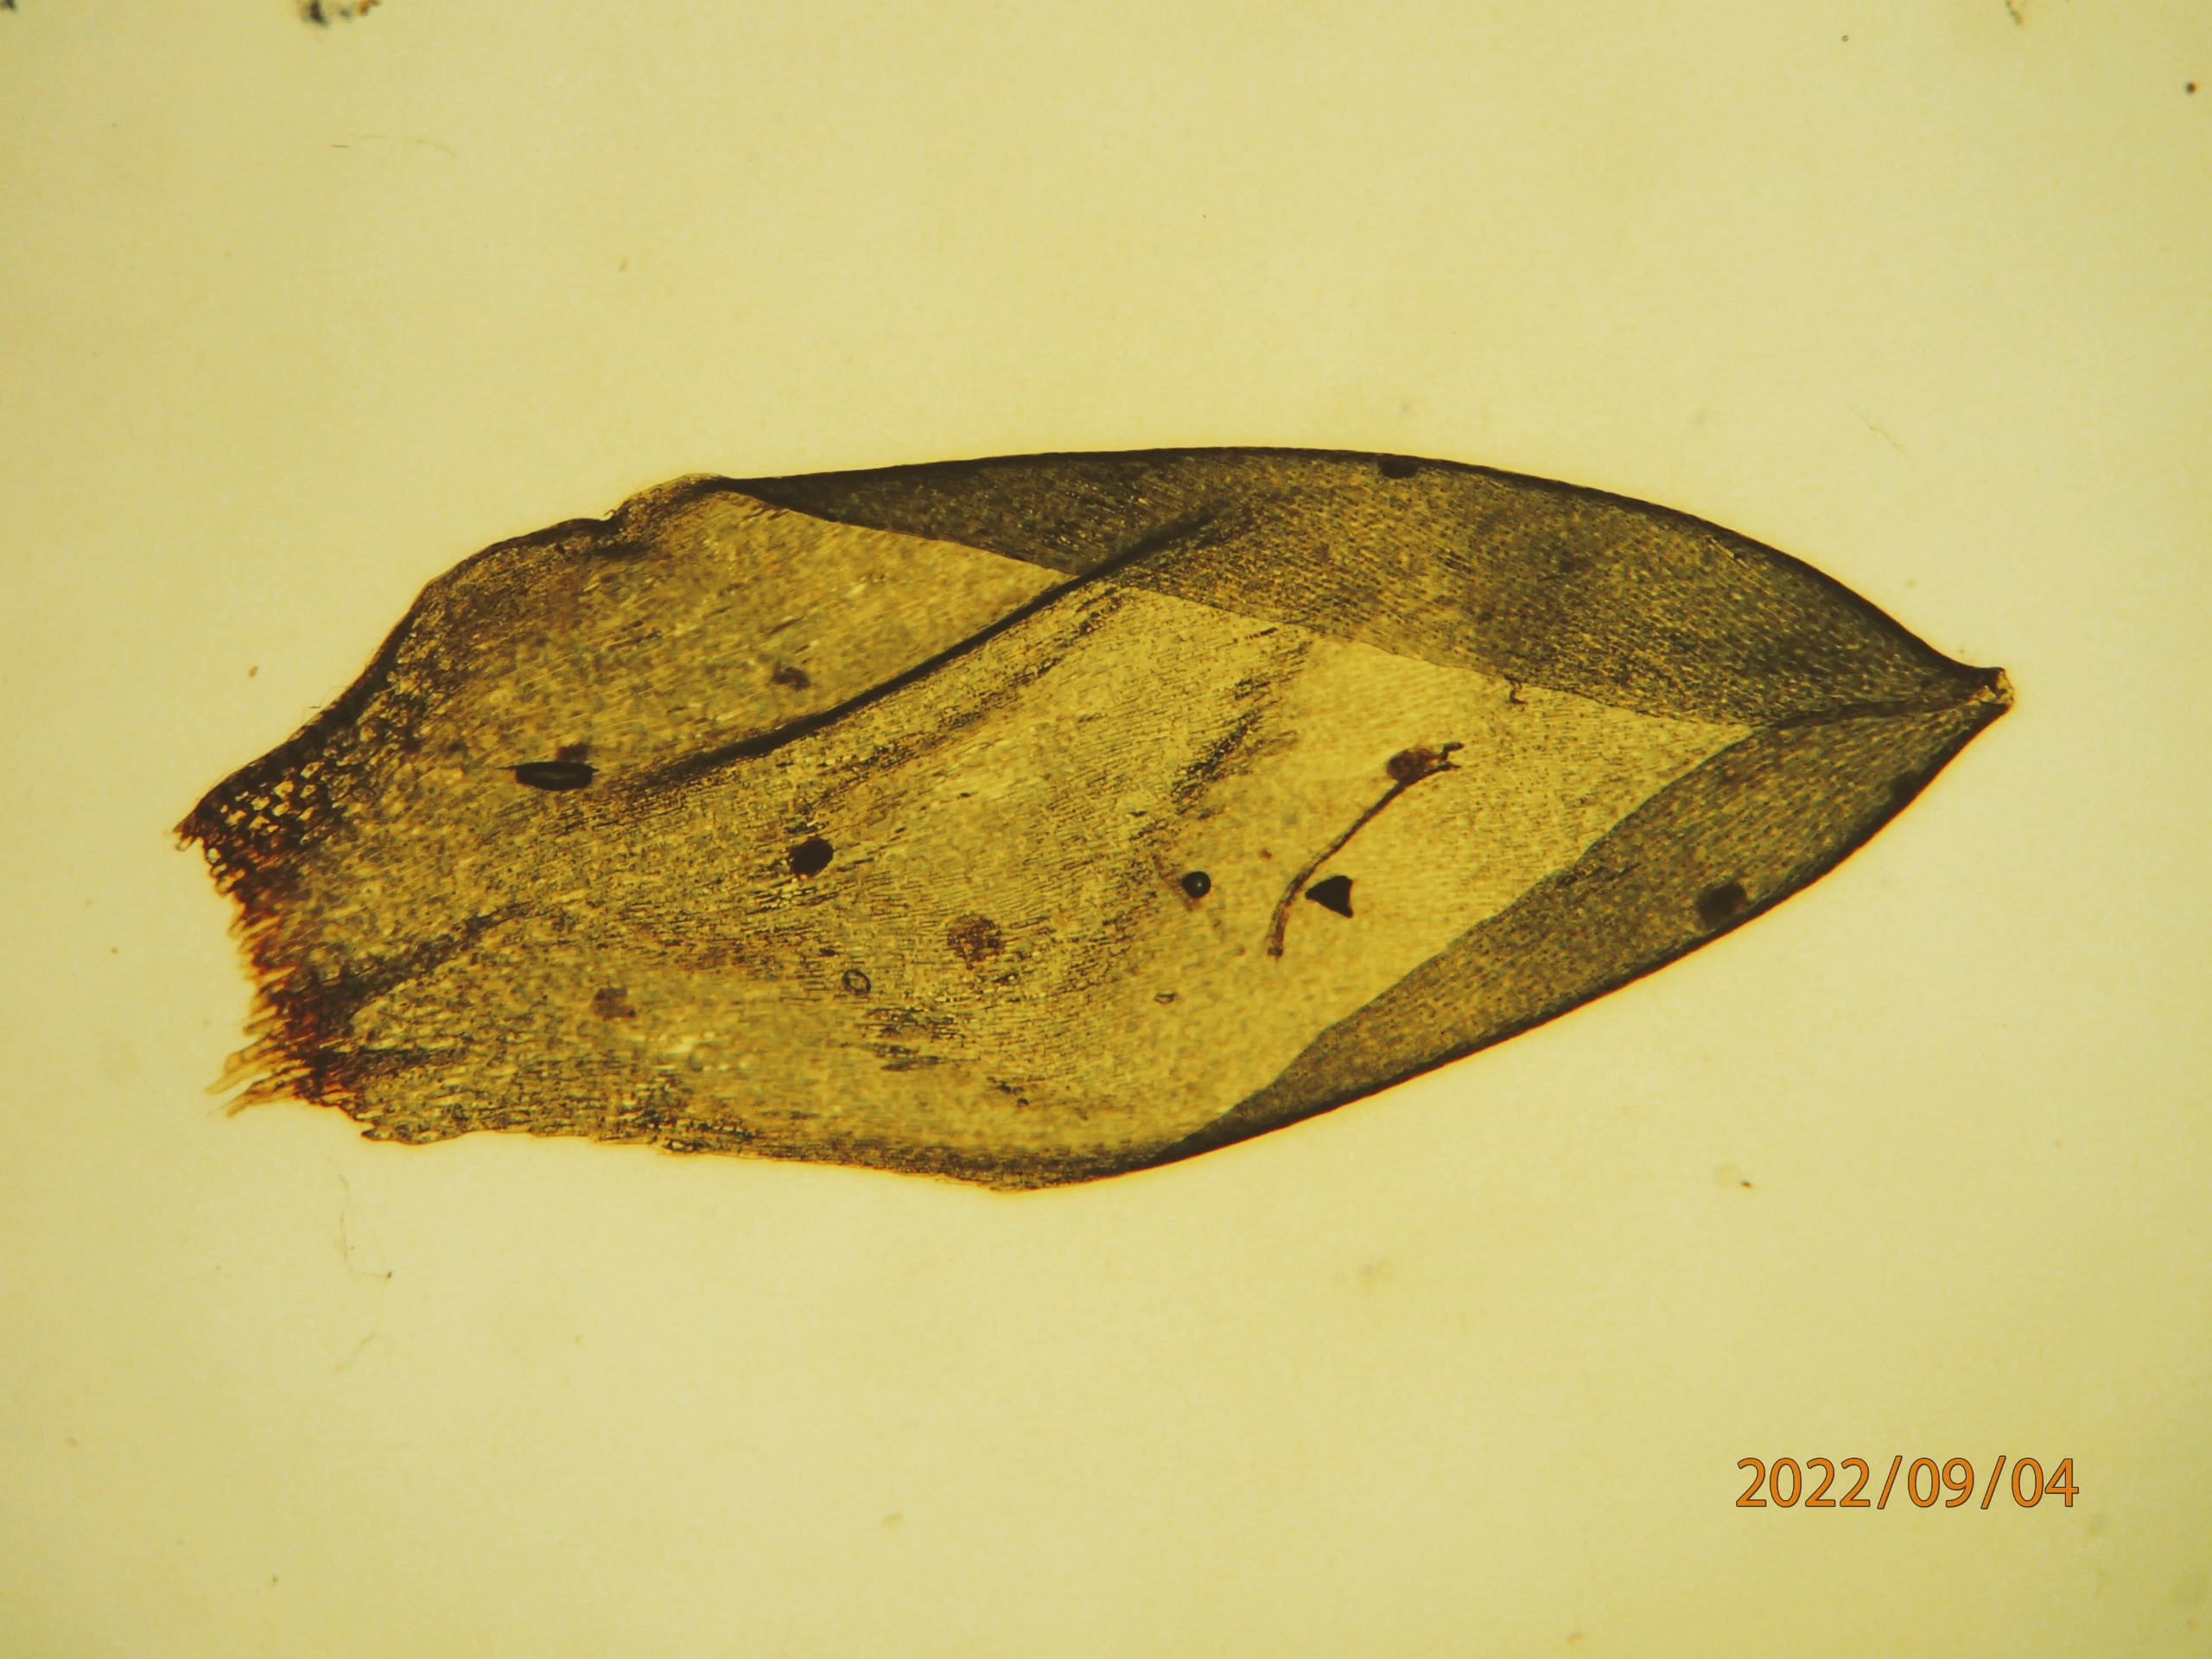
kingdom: Plantae
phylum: Bryophyta
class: Bryopsida
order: Hypnales
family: Hylocomiaceae
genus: Pleurozium
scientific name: Pleurozium schreberi
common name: Trind fyrremos
